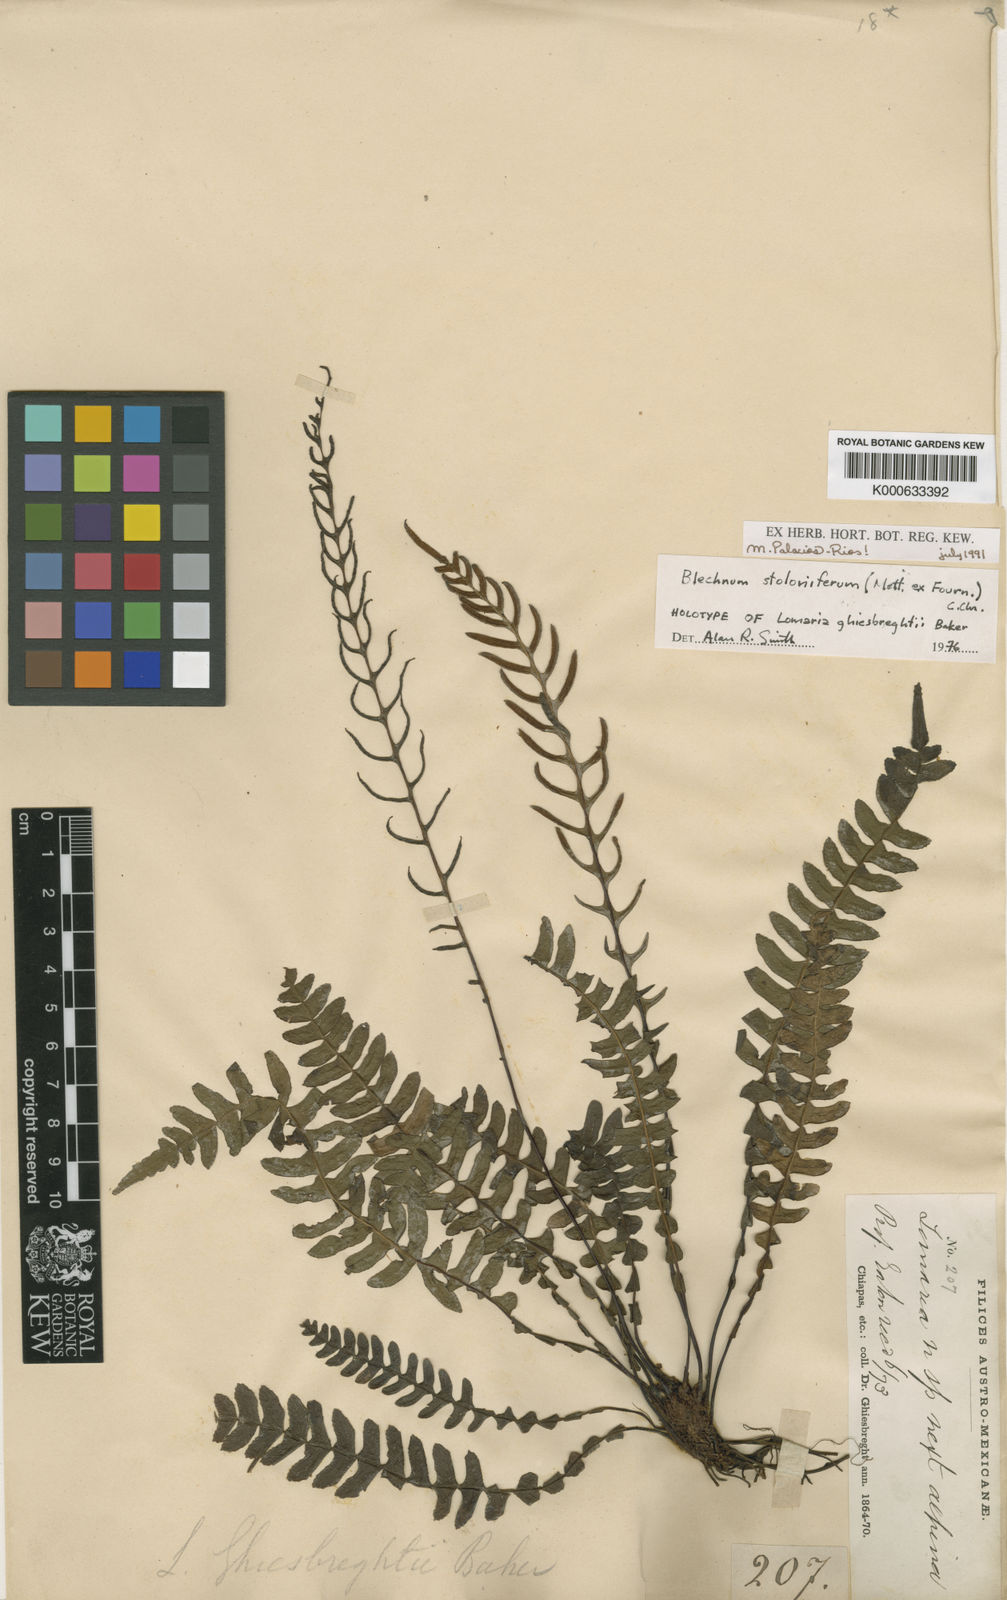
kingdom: Plantae
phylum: Tracheophyta
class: Polypodiopsida
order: Polypodiales
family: Blechnaceae
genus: Blechnum
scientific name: Blechnum
